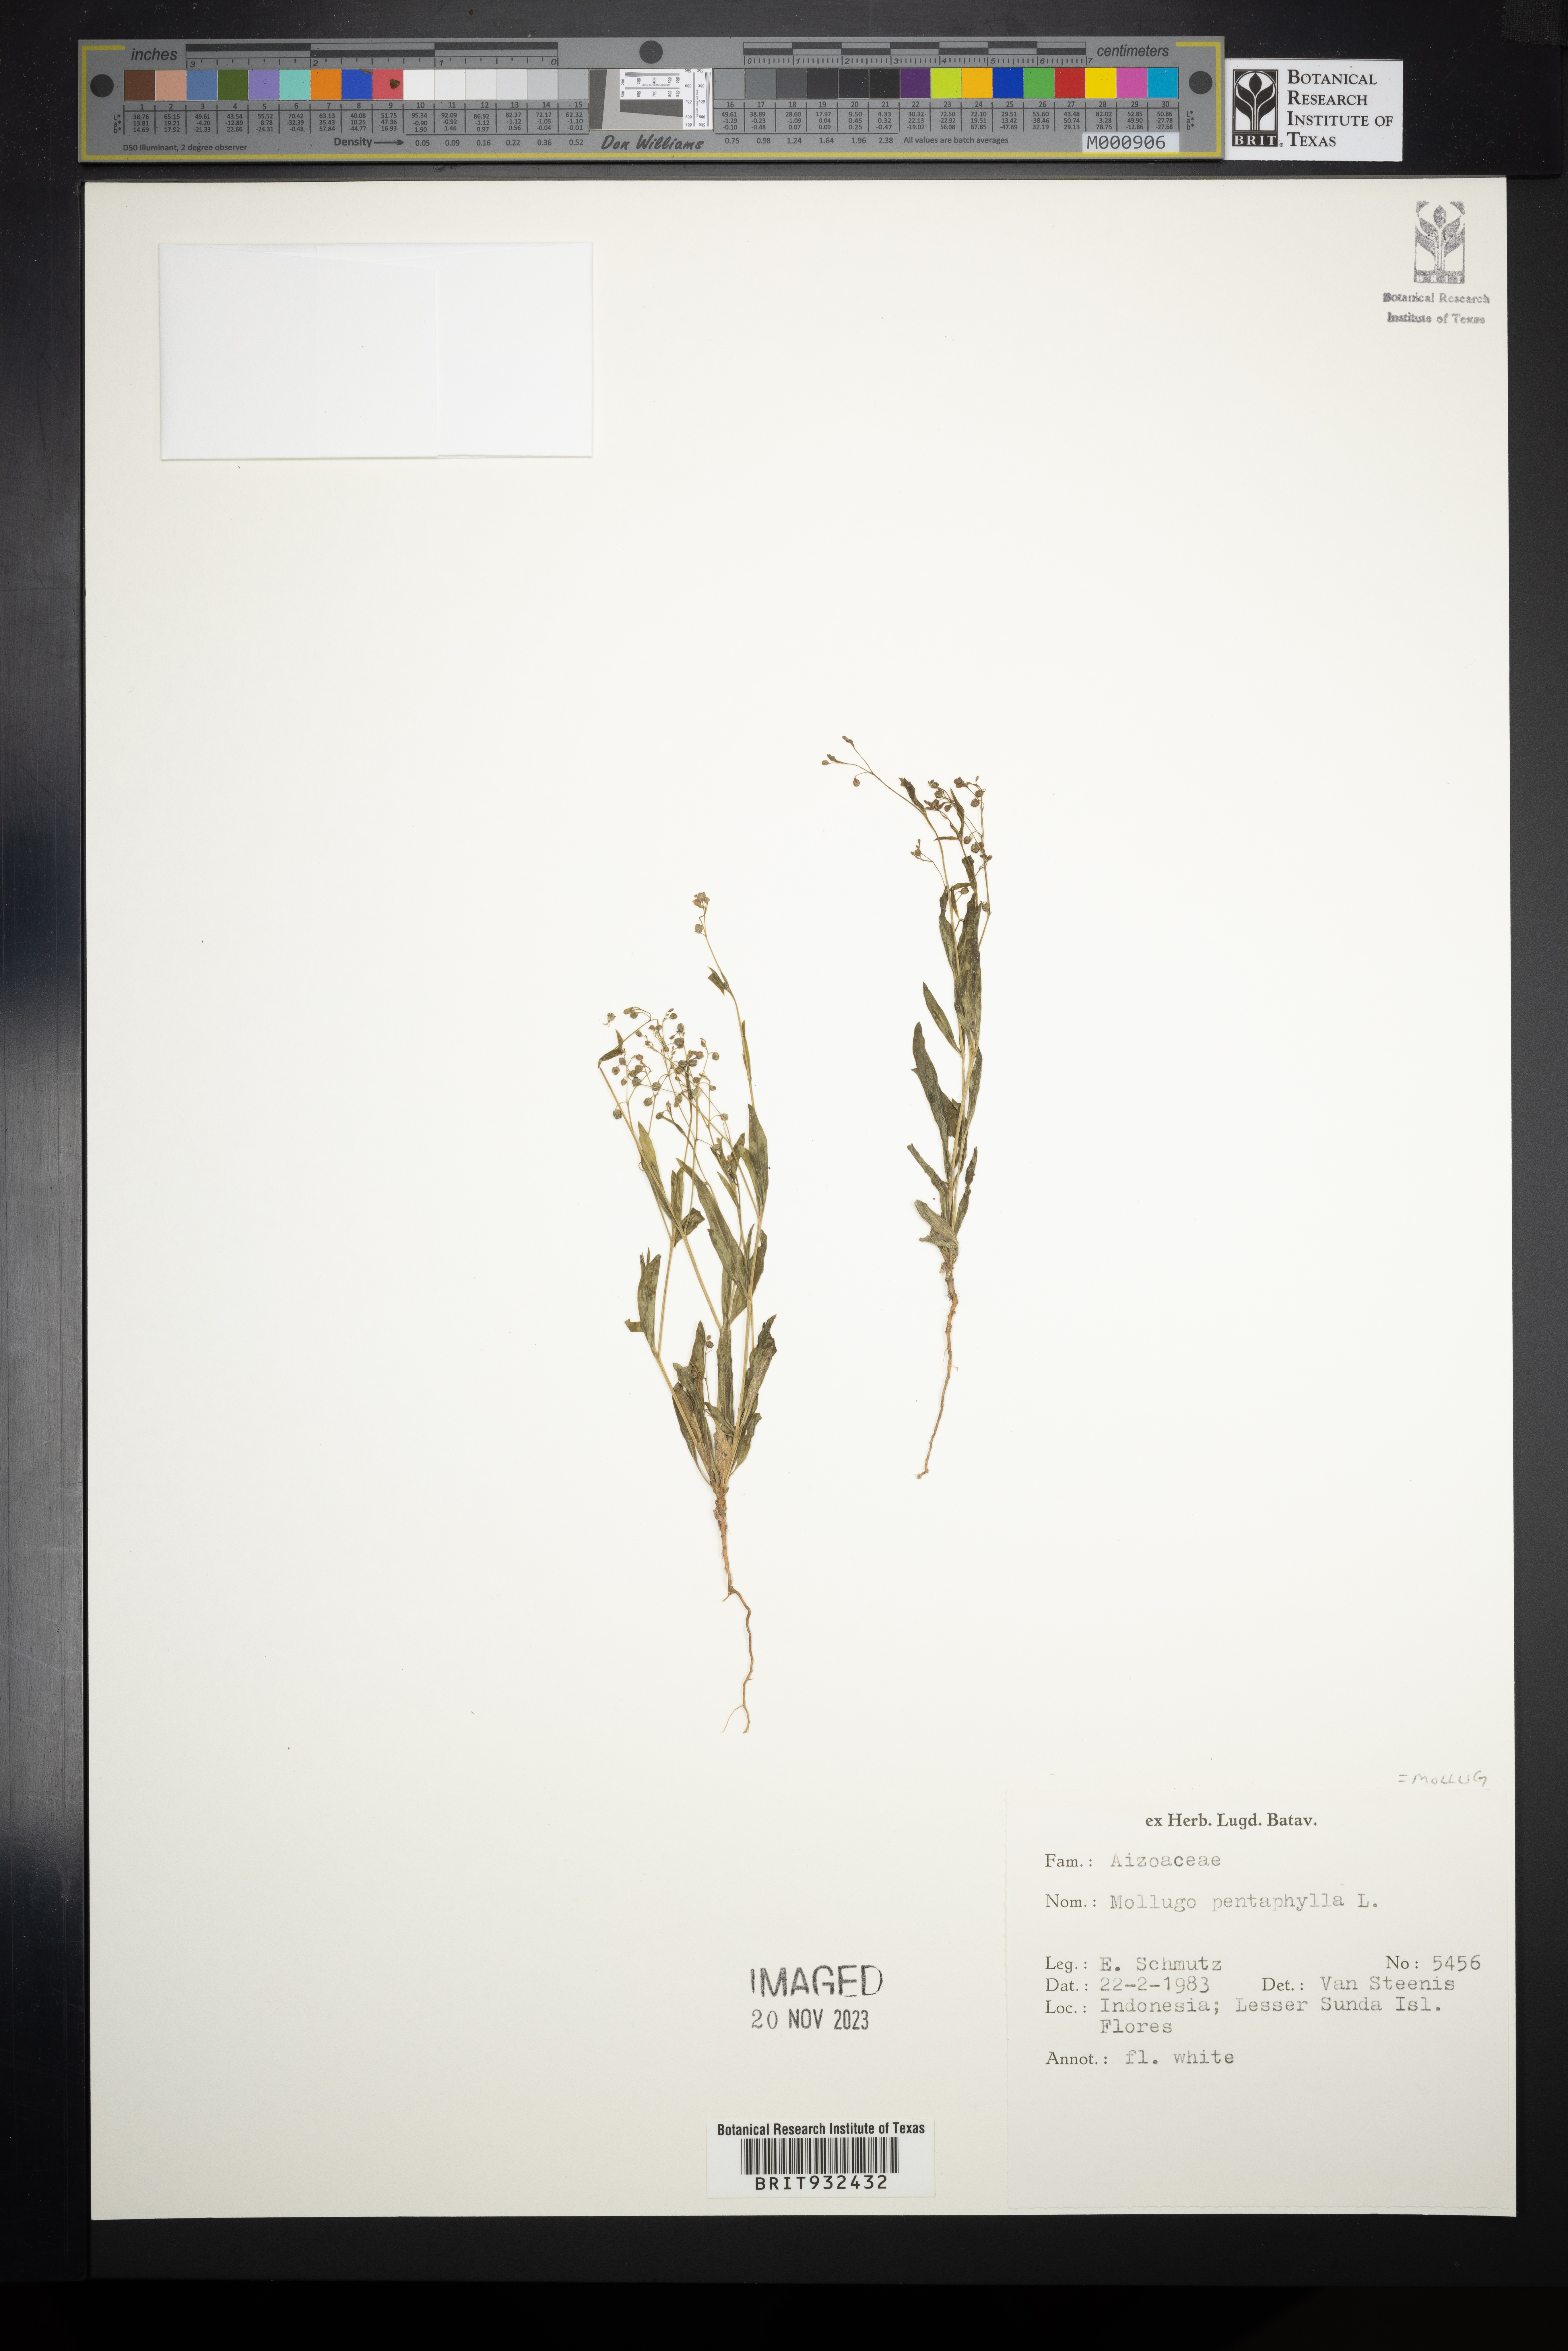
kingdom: Plantae
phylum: Tracheophyta
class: Magnoliopsida
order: Caryophyllales
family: Molluginaceae
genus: Mollugo
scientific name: Mollugo
